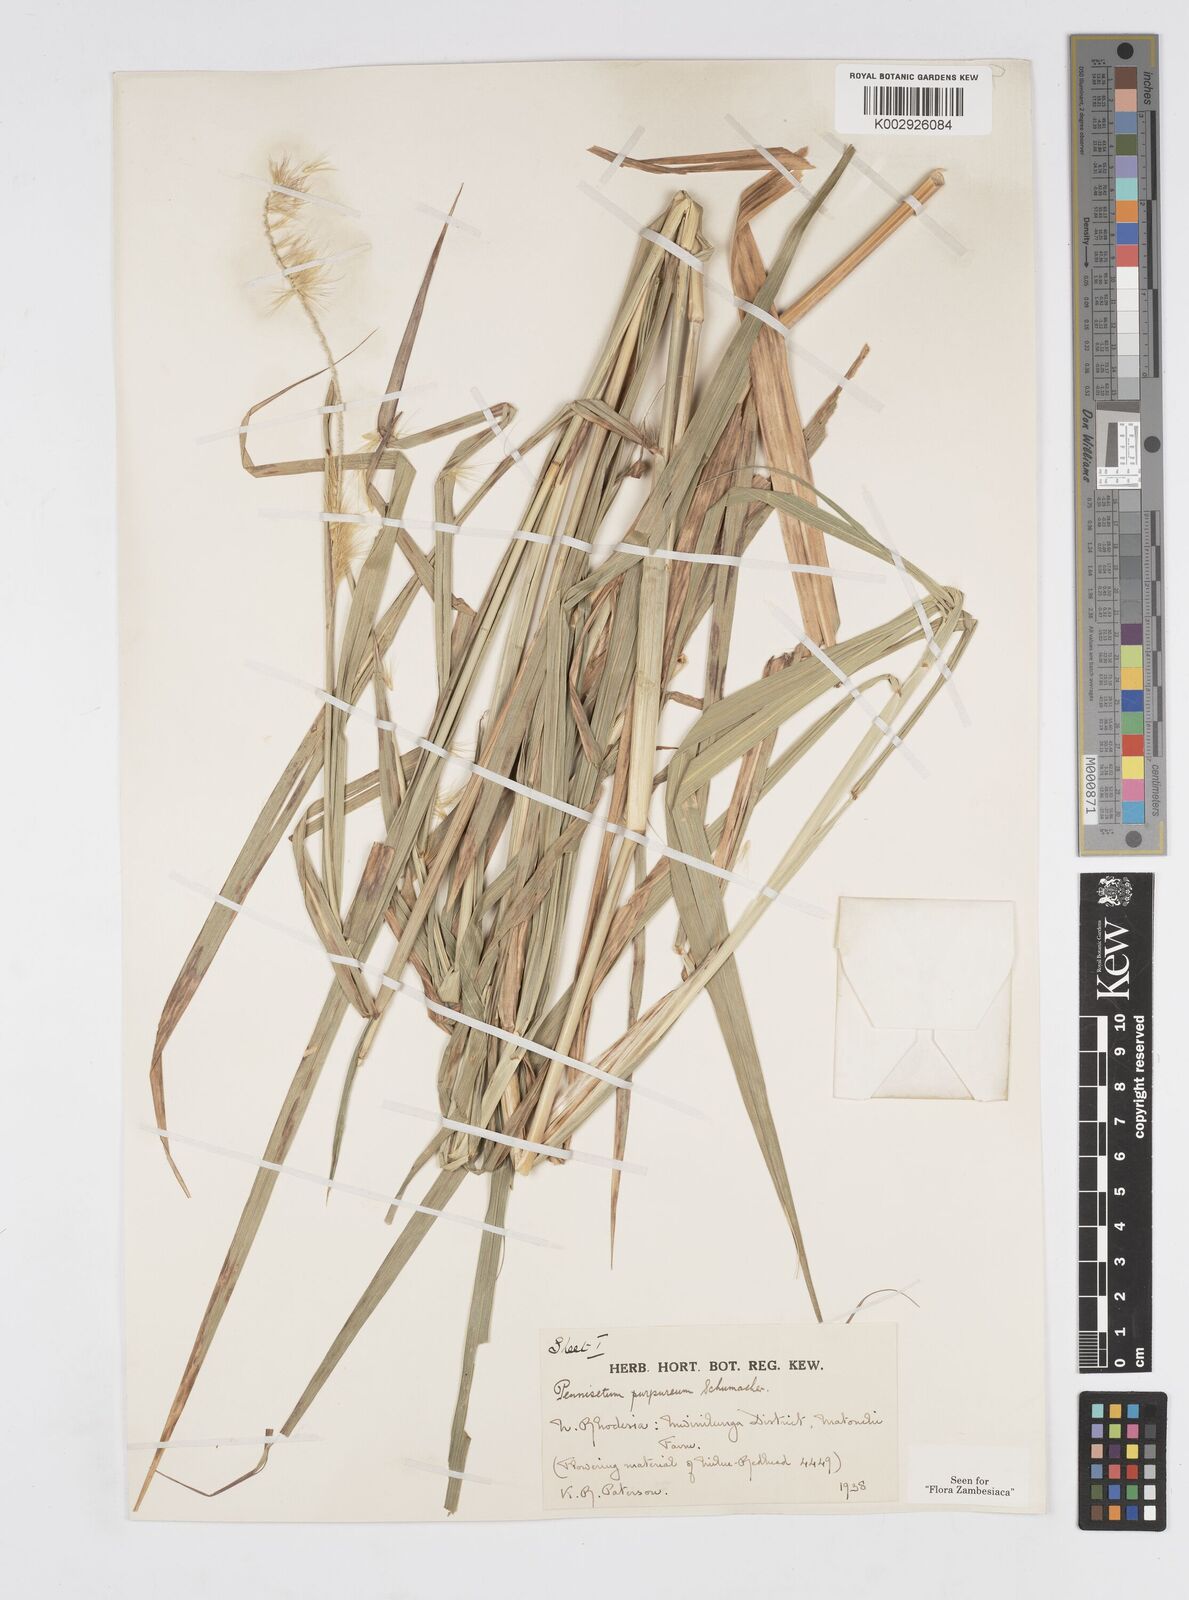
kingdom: Plantae
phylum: Tracheophyta
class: Liliopsida
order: Poales
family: Poaceae
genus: Cenchrus
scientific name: Cenchrus purpureus
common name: Elephant grass
